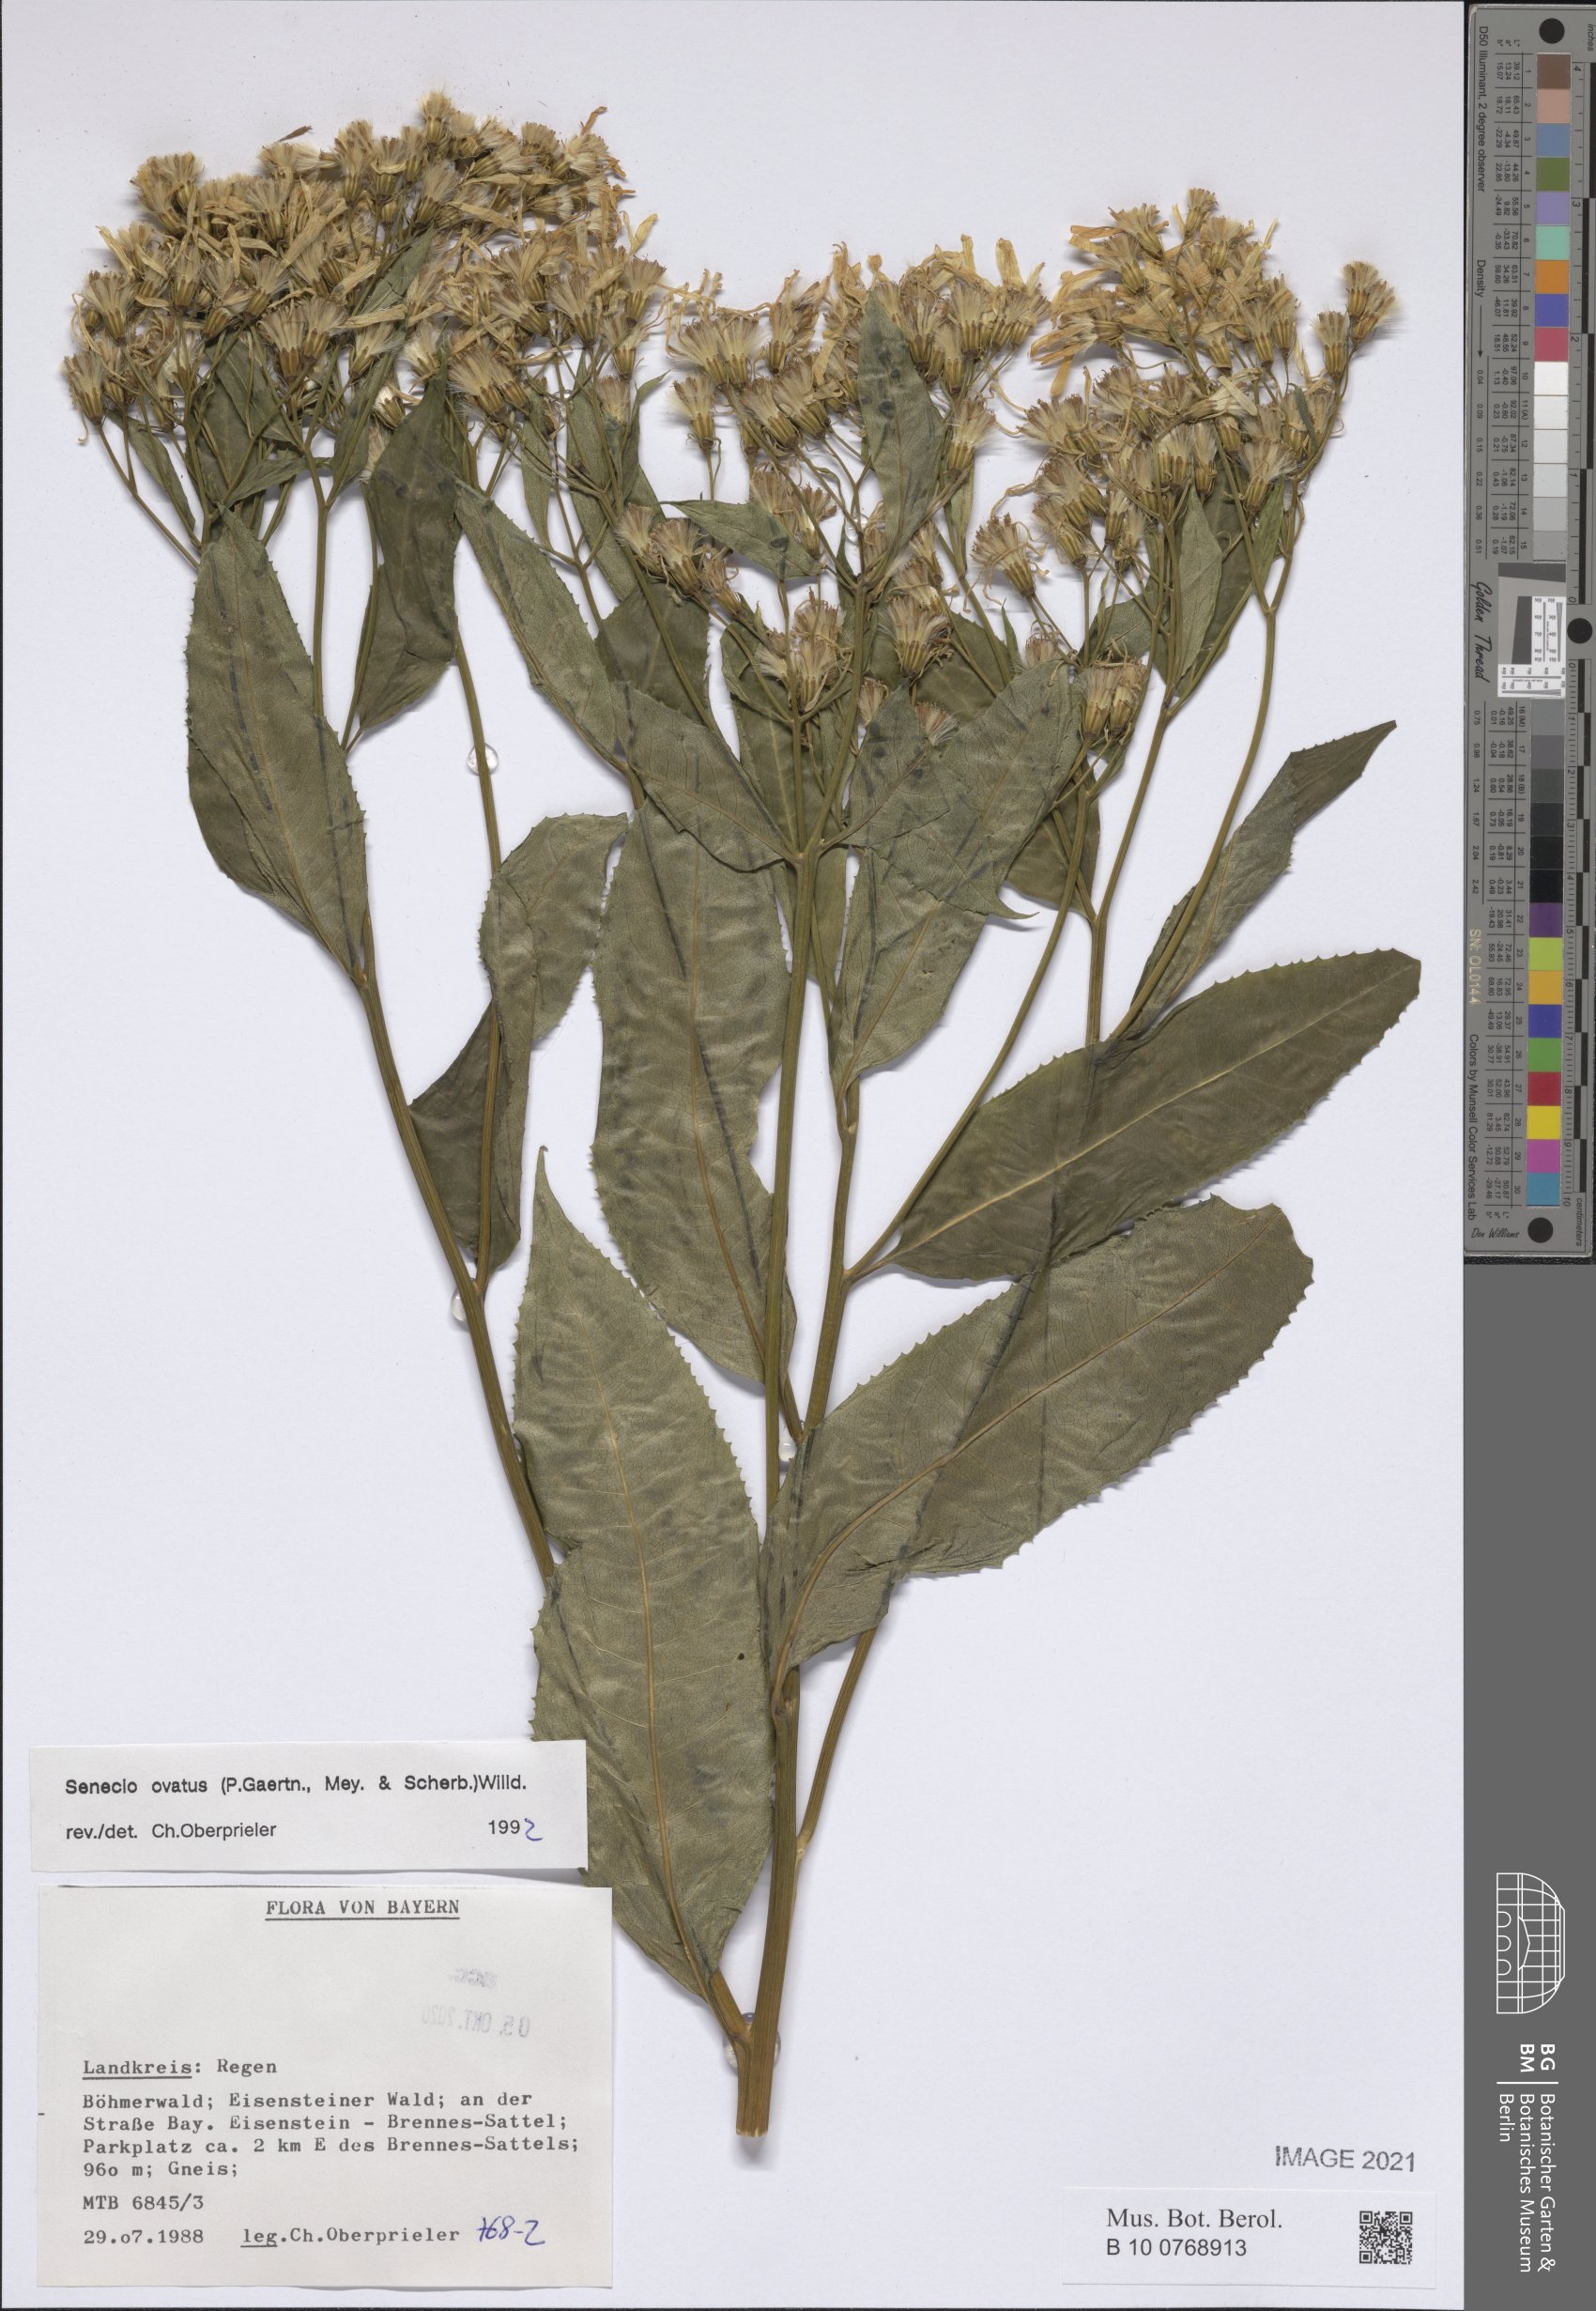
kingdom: Plantae
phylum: Tracheophyta
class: Magnoliopsida
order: Asterales
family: Asteraceae
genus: Senecio
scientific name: Senecio ovatus
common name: Wood ragwort
